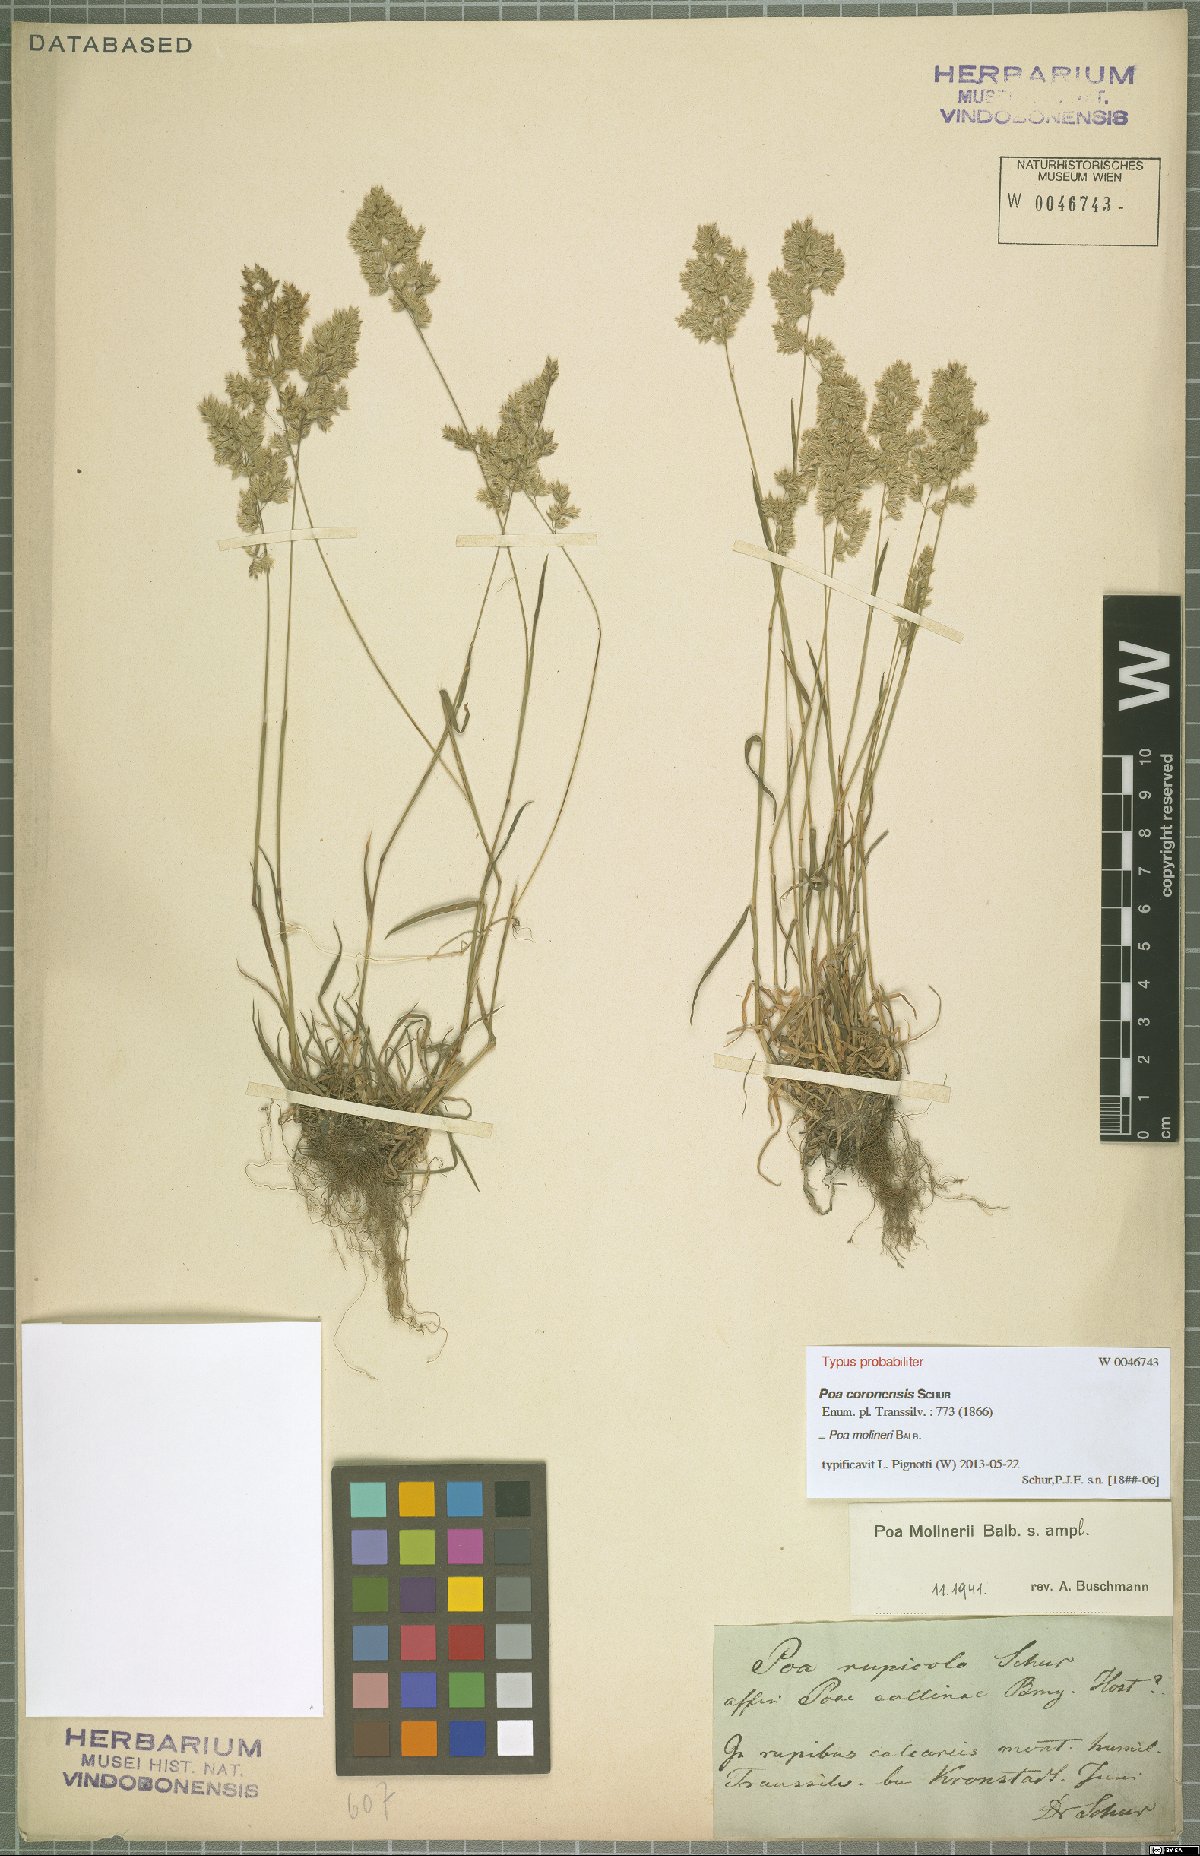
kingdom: Plantae
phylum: Tracheophyta
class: Liliopsida
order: Poales
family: Poaceae
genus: Poa
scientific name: Poa molinerii
